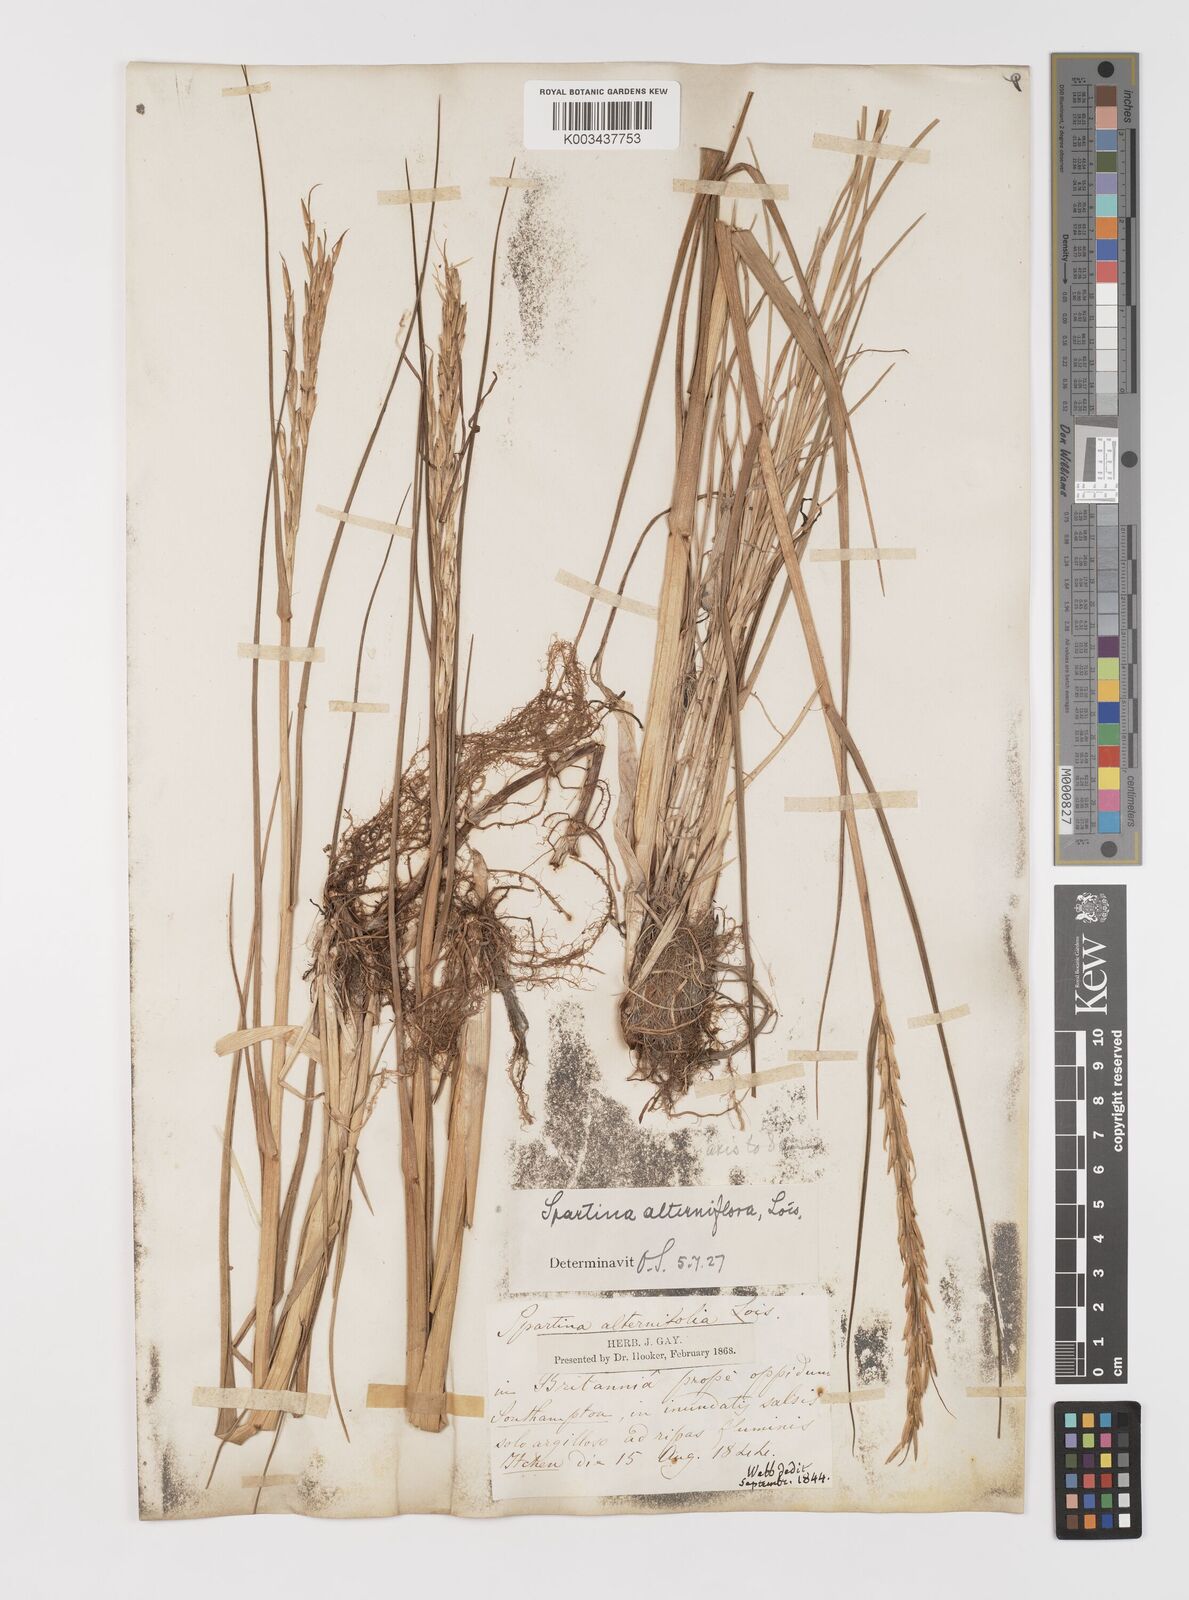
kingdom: Plantae
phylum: Tracheophyta
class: Liliopsida
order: Poales
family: Poaceae
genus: Sporobolus
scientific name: Sporobolus alterniflorus
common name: Atlantic cordgrass
